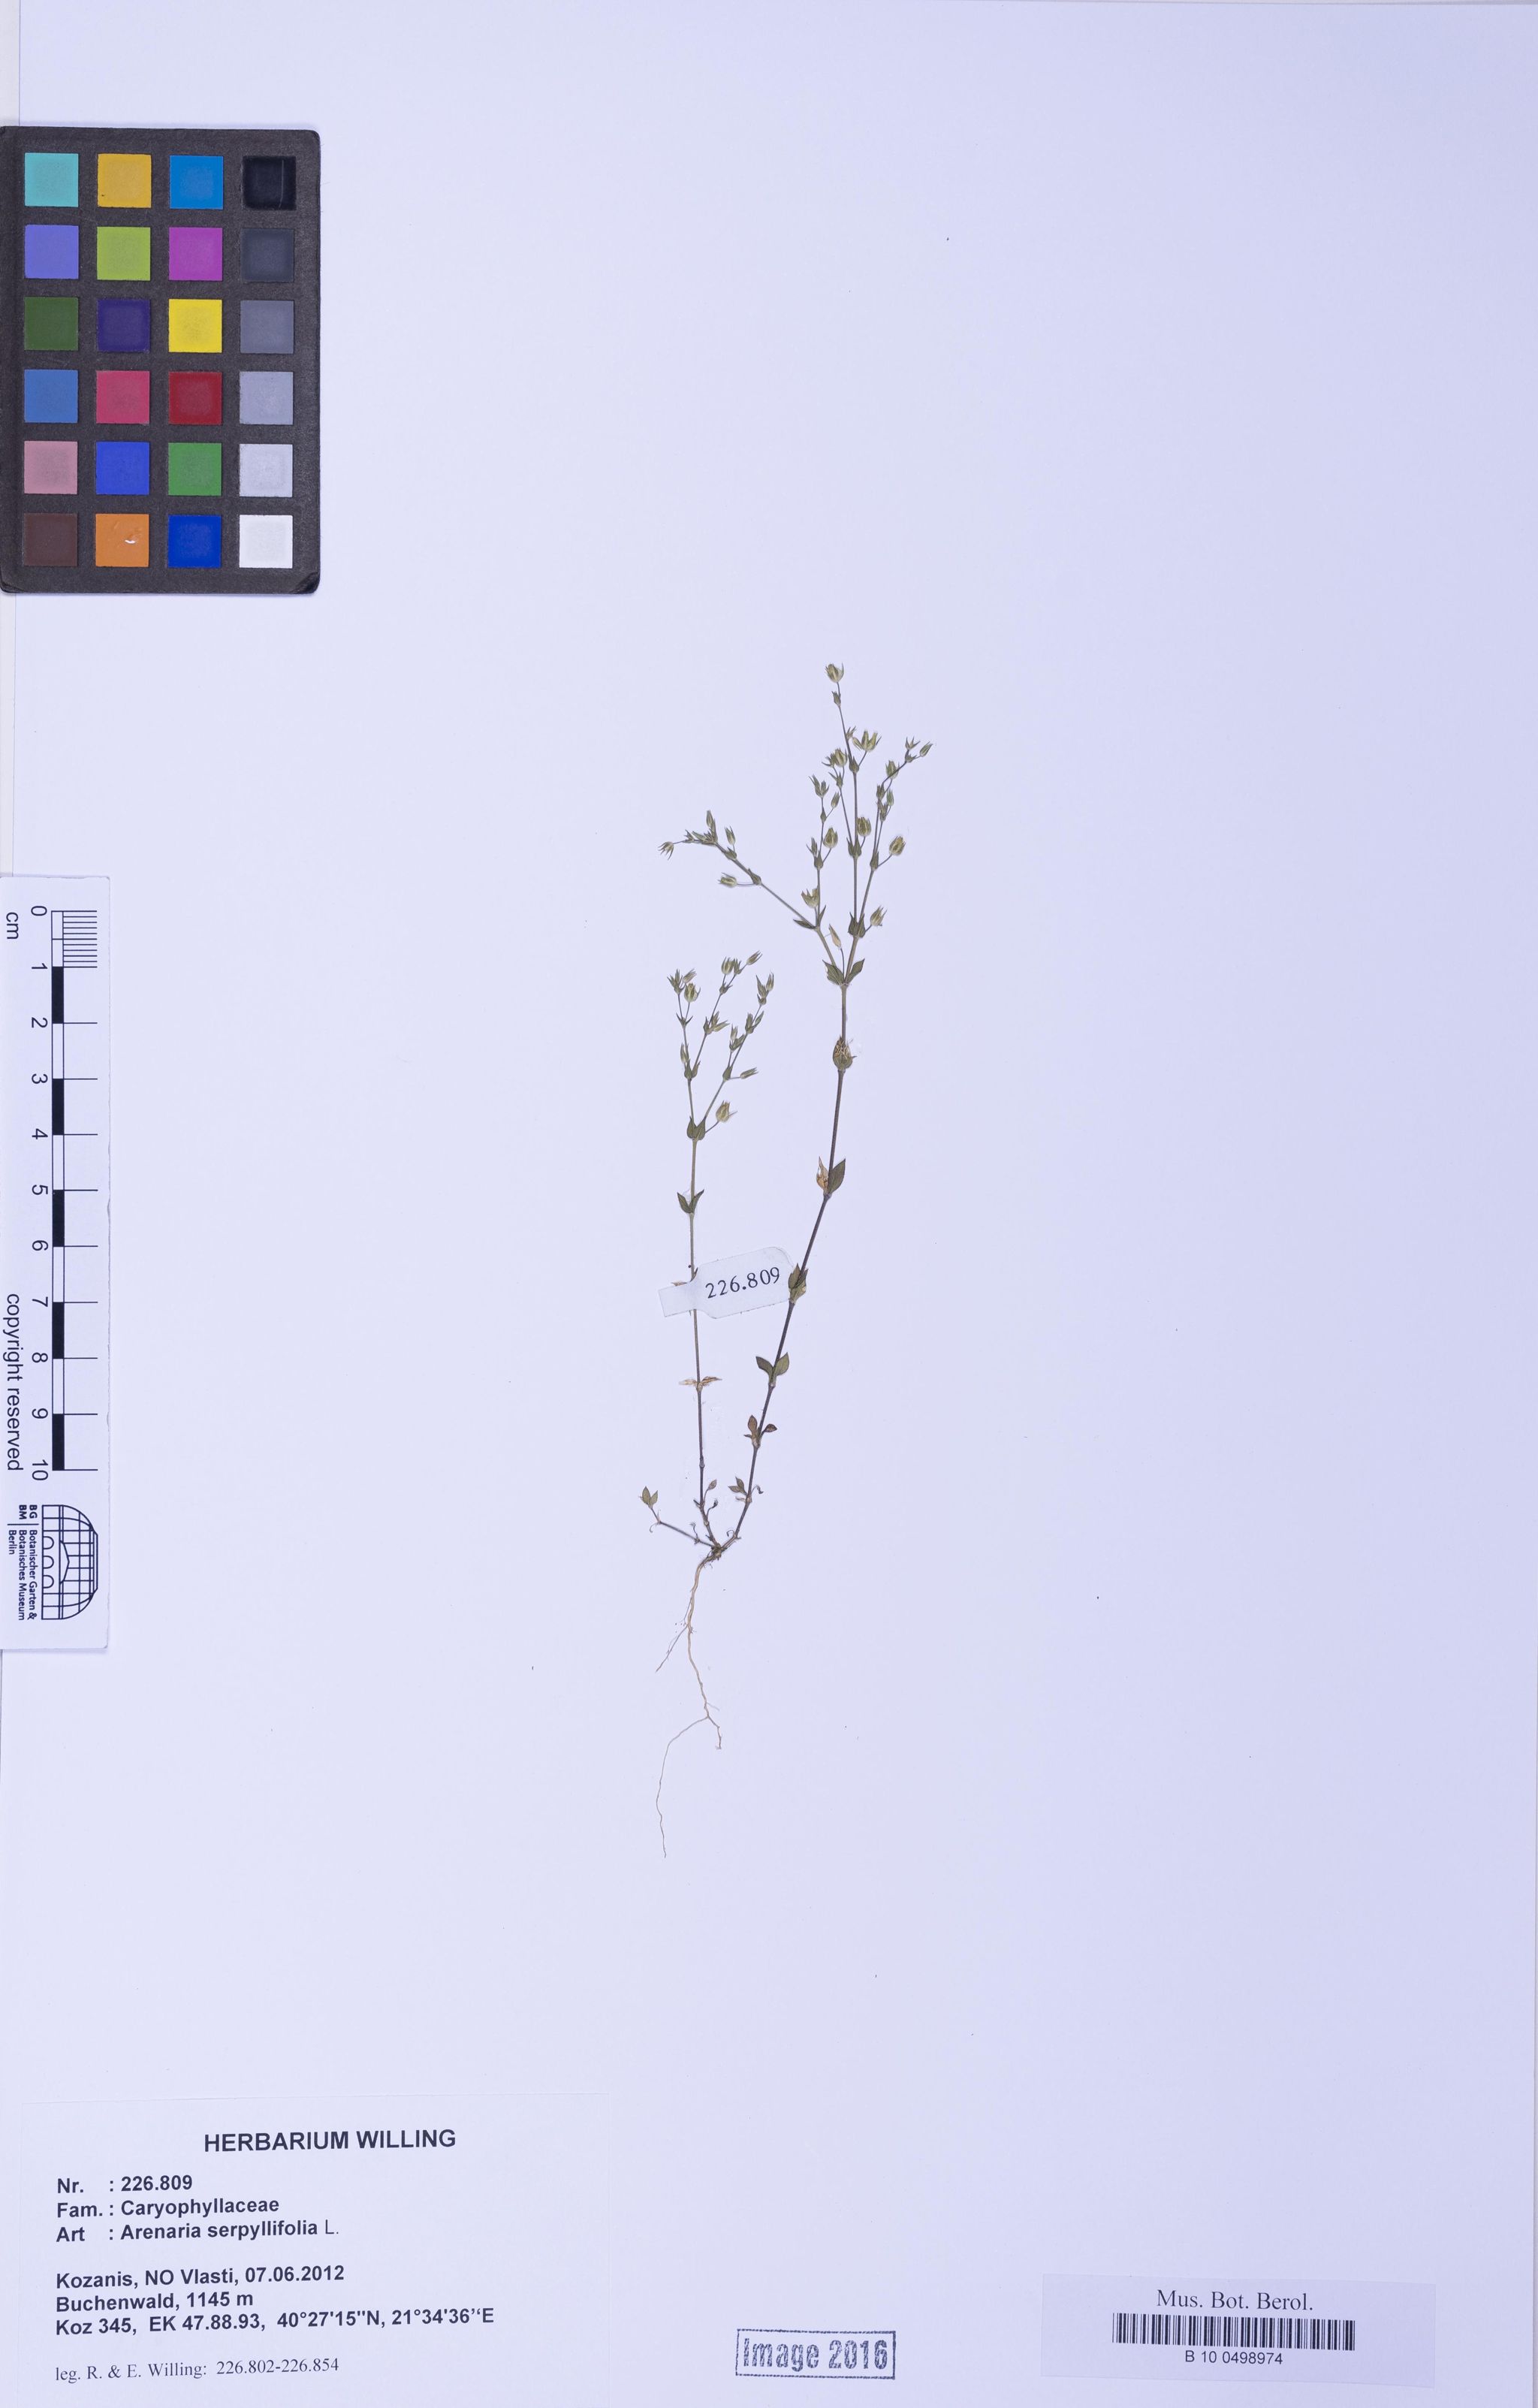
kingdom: Plantae
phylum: Tracheophyta
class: Magnoliopsida
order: Caryophyllales
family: Caryophyllaceae
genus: Arenaria
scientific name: Arenaria serpyllifolia
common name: Thyme-leaved sandwort
